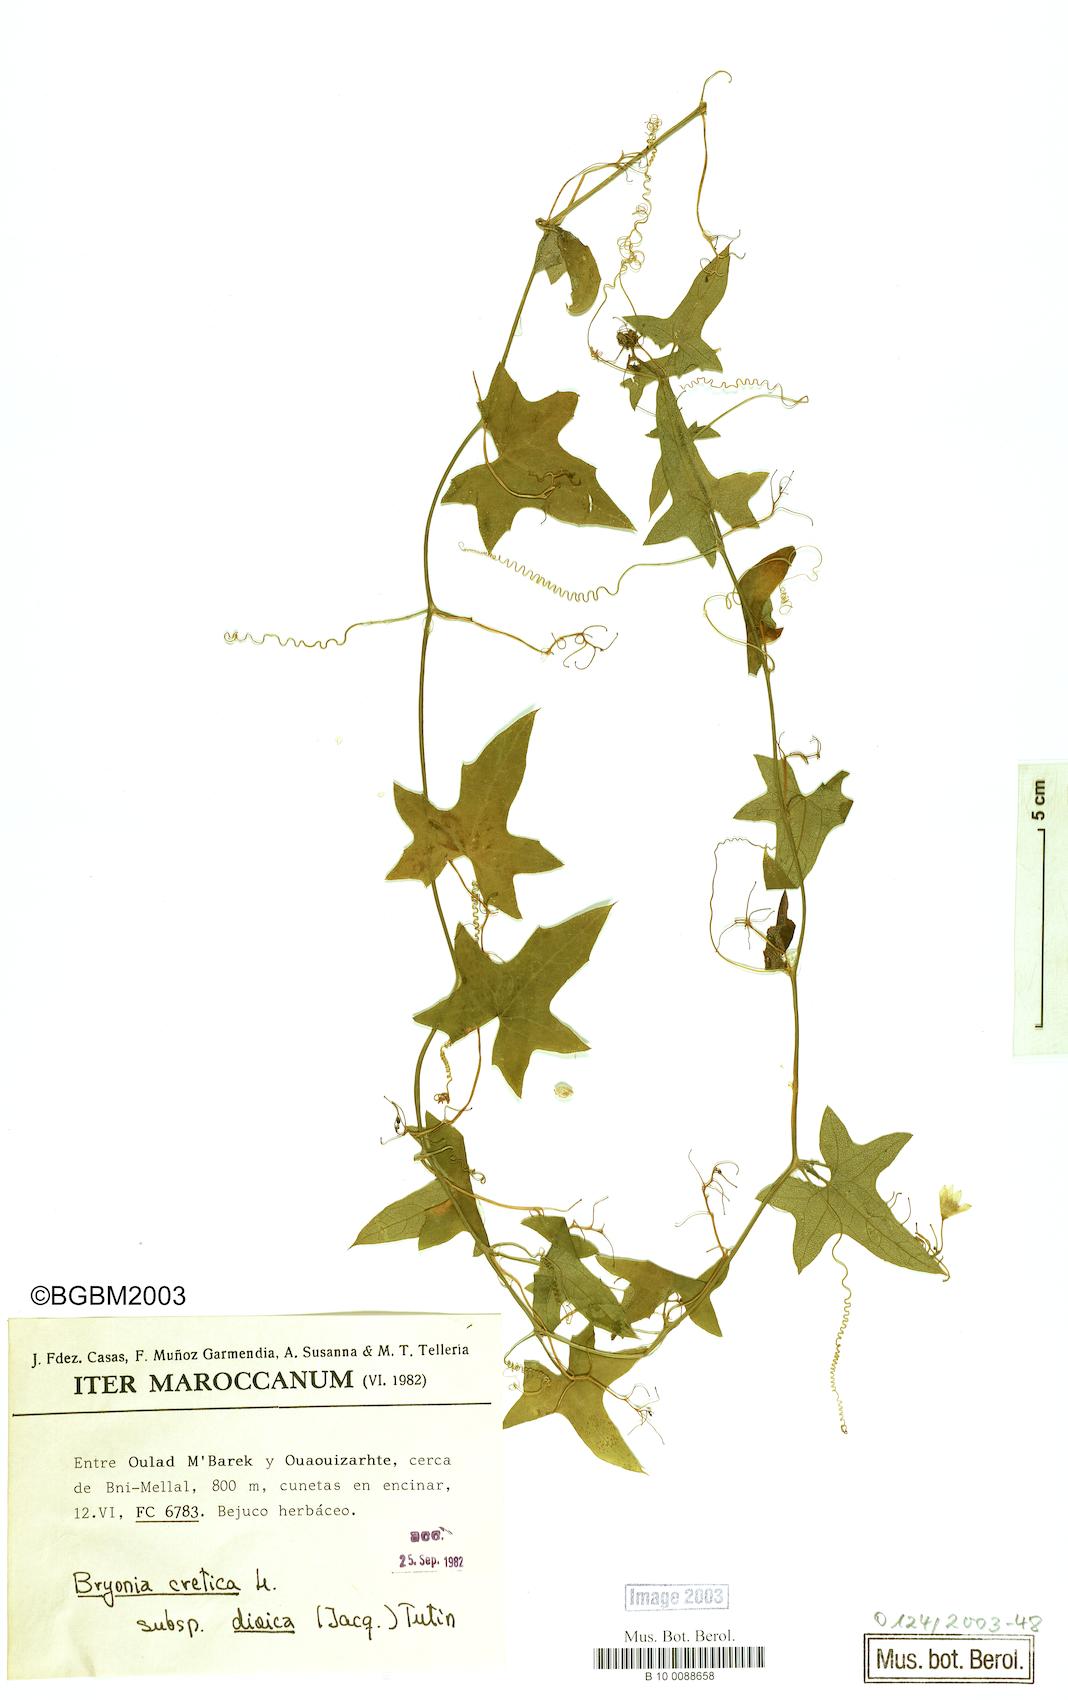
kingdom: Plantae
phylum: Tracheophyta
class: Magnoliopsida
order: Cucurbitales
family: Cucurbitaceae
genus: Bryonia
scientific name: Bryonia dioica
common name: White bryony
